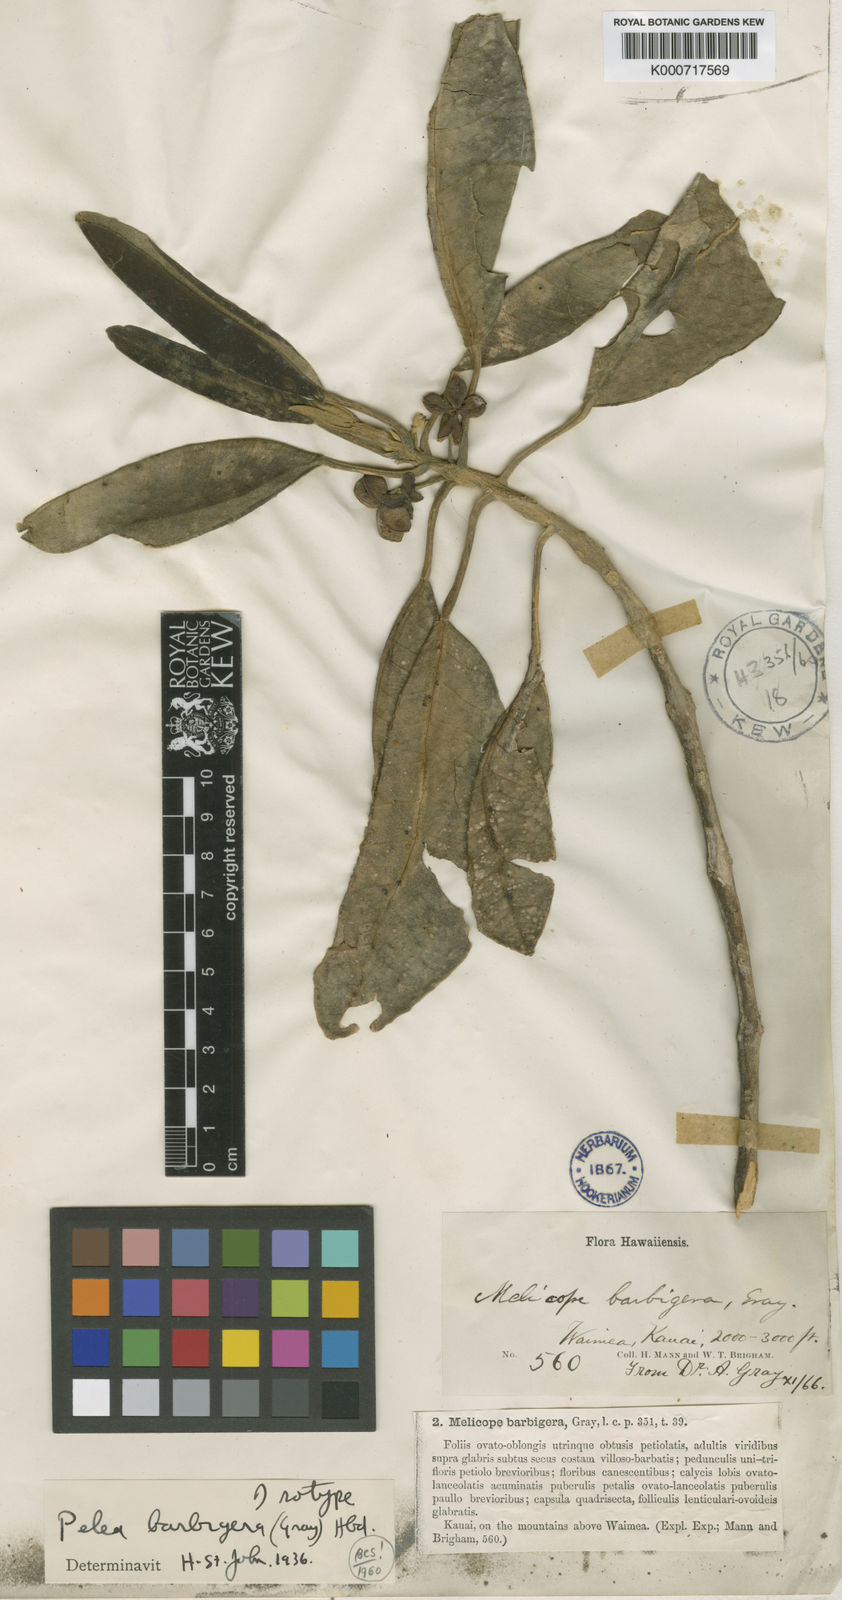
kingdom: Plantae
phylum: Tracheophyta
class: Magnoliopsida
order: Sapindales
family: Rutaceae
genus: Melicope
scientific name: Melicope barbigera
